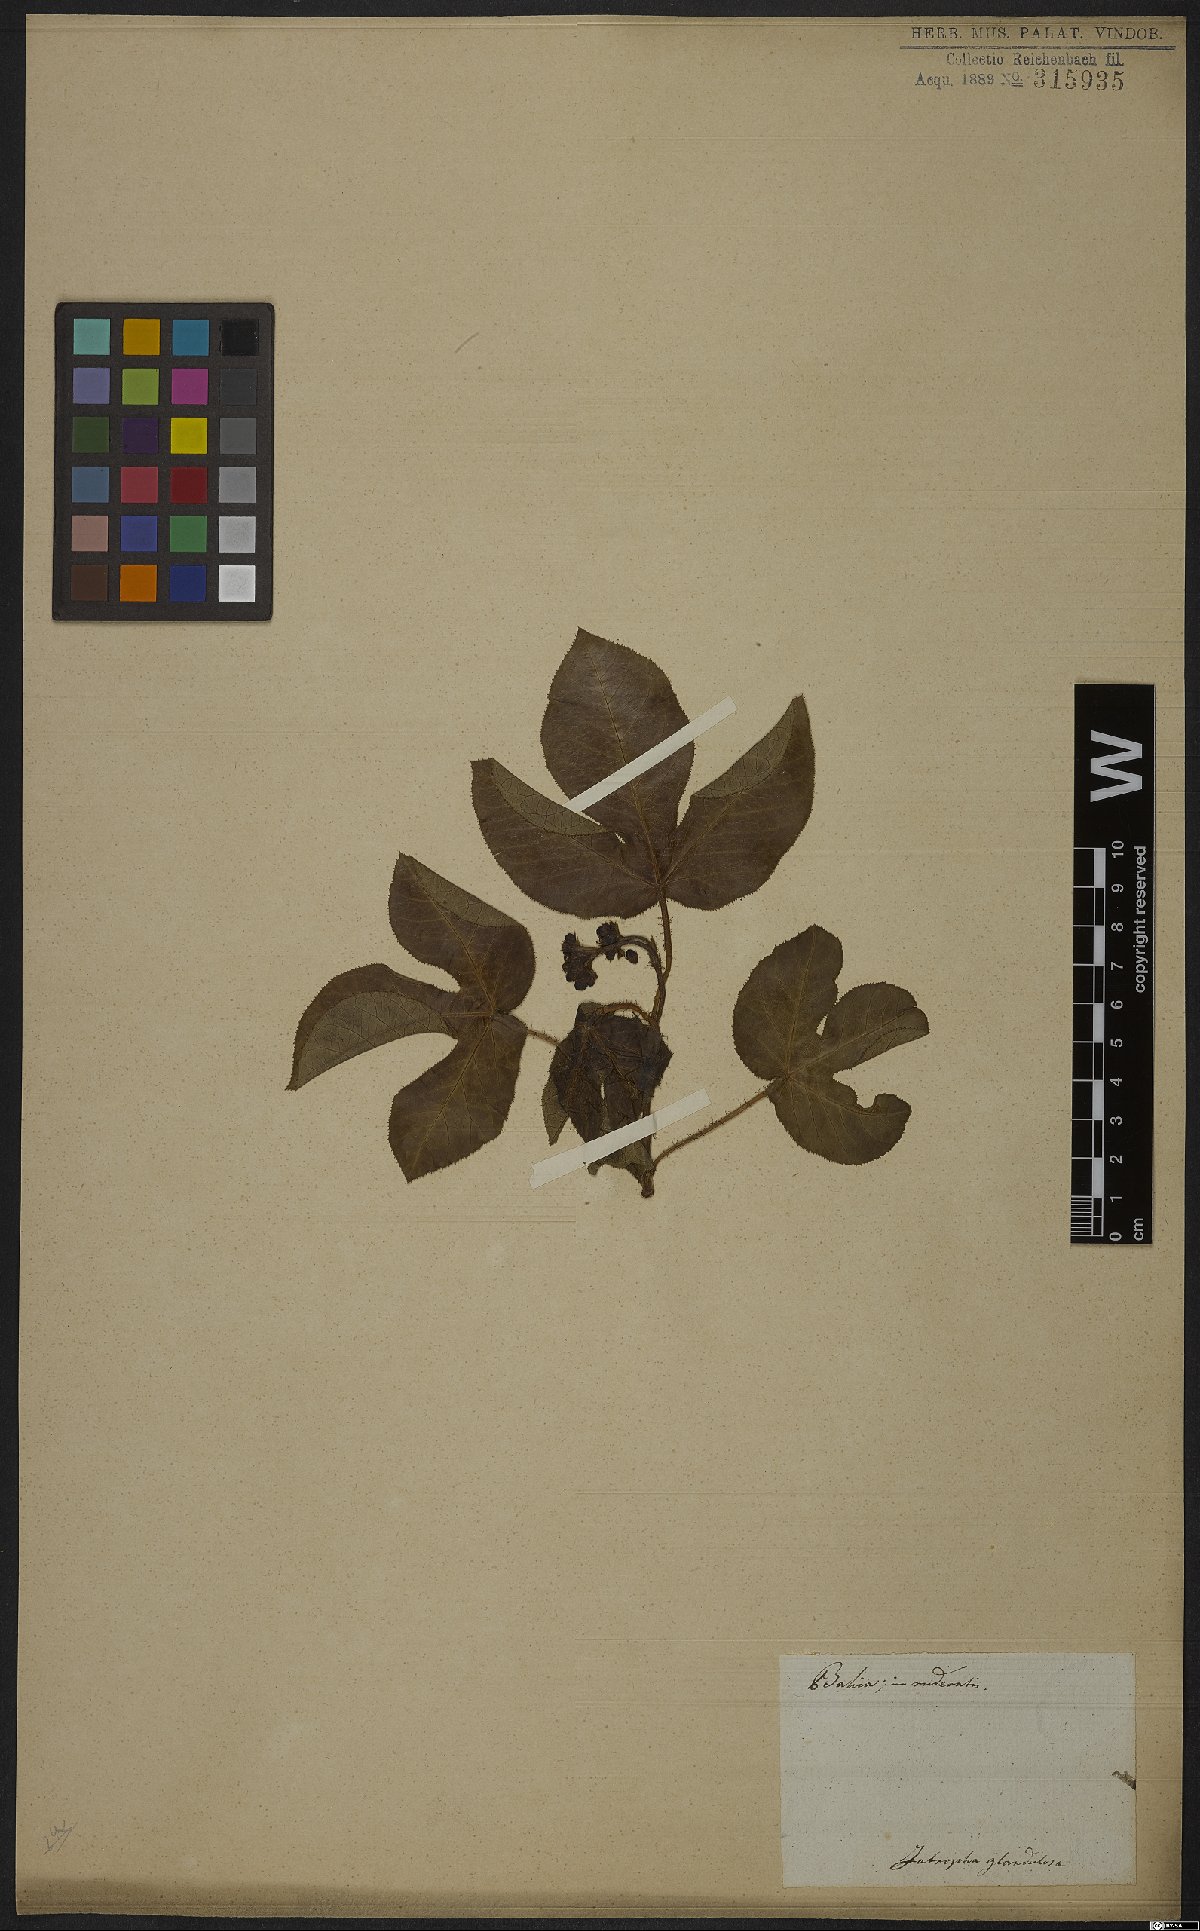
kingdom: Plantae
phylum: Tracheophyta
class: Magnoliopsida
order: Malpighiales
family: Euphorbiaceae
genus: Jatropha
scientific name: Jatropha gossypiifolia
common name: Bellyache bush
